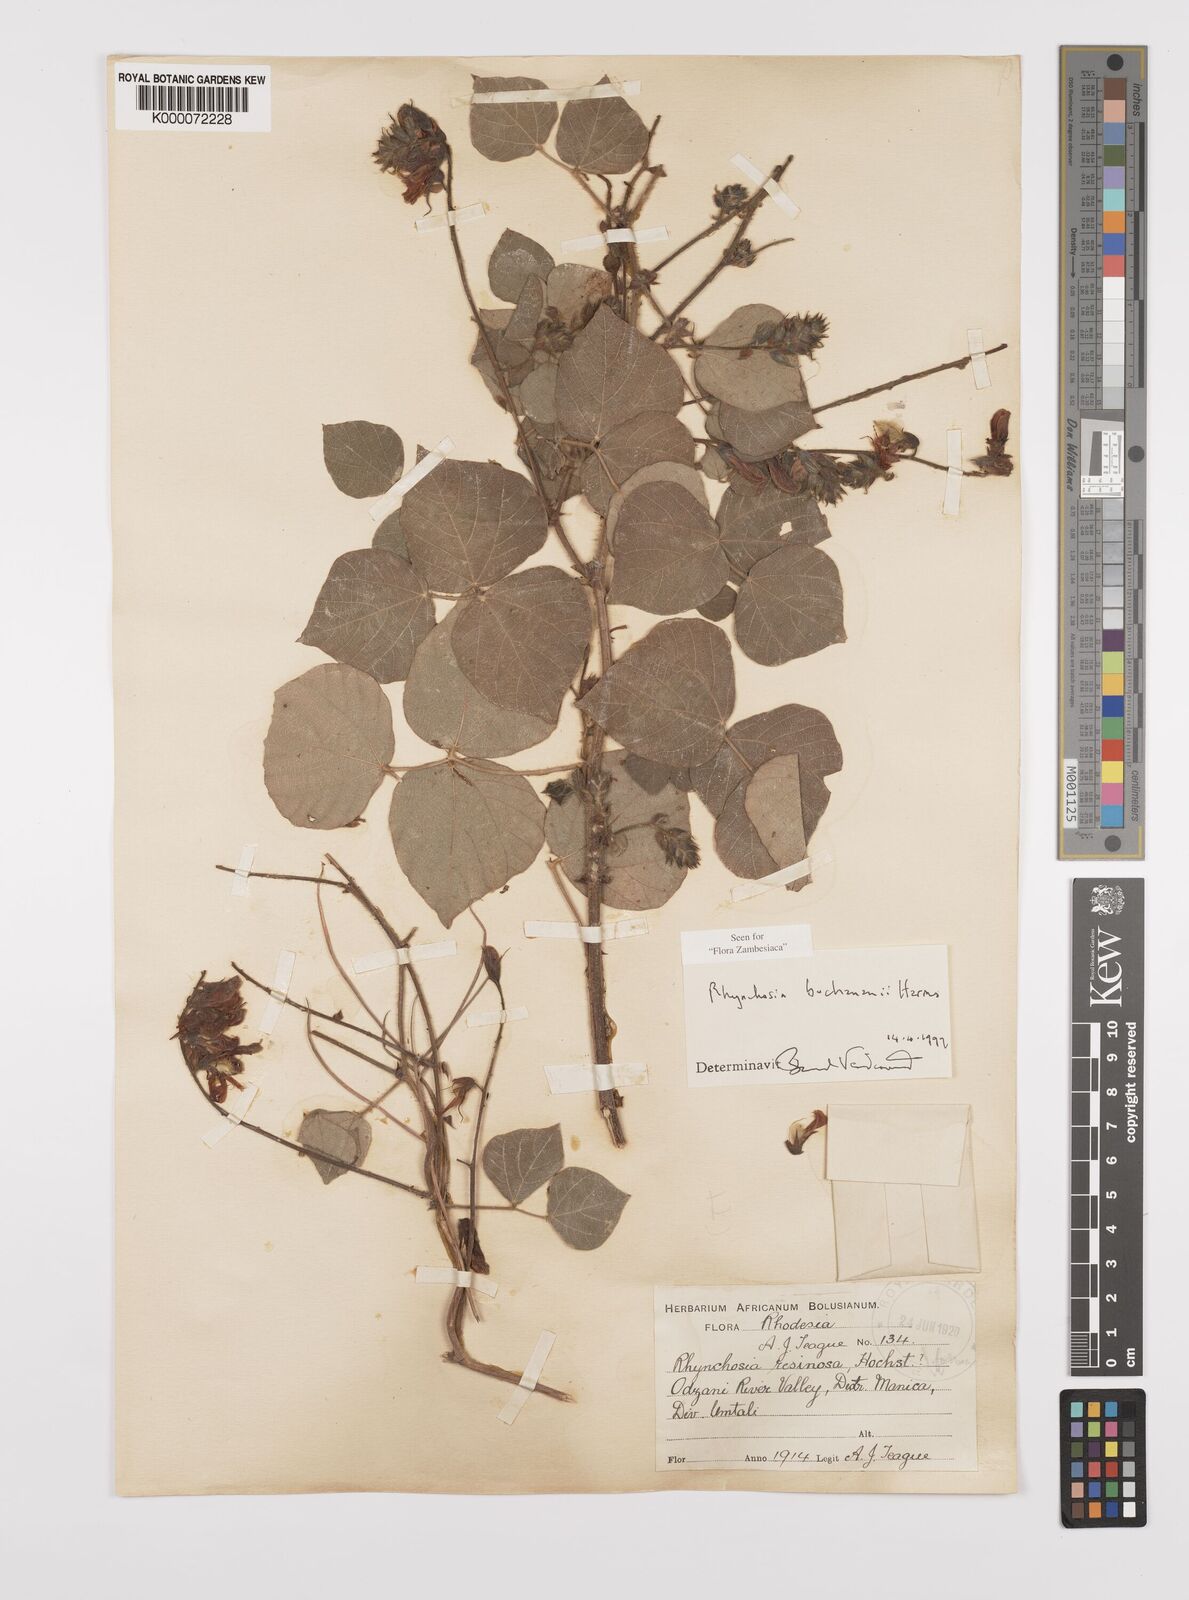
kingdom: Plantae
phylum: Tracheophyta
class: Magnoliopsida
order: Fabales
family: Fabaceae
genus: Rhynchosia
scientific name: Rhynchosia buchananii
